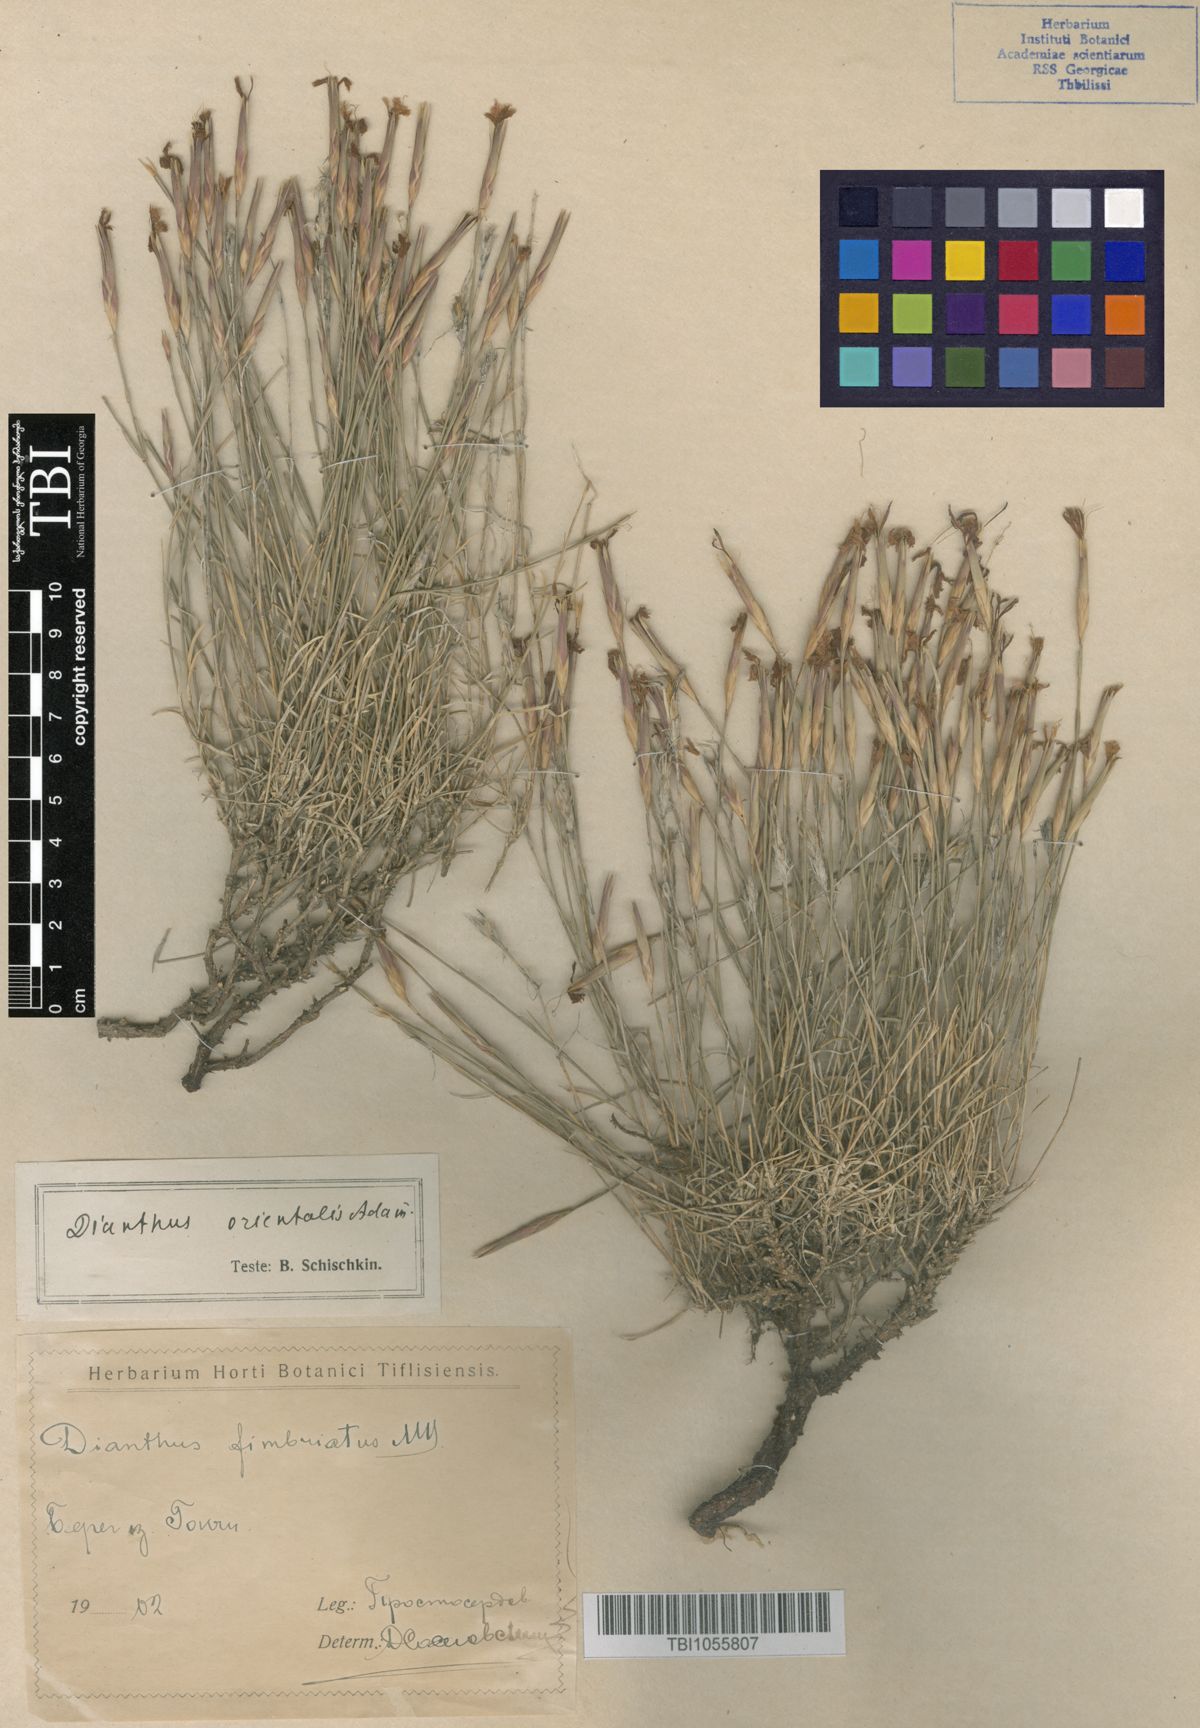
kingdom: Plantae
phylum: Tracheophyta
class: Magnoliopsida
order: Caryophyllales
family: Caryophyllaceae
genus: Dianthus
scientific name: Dianthus orientalis
